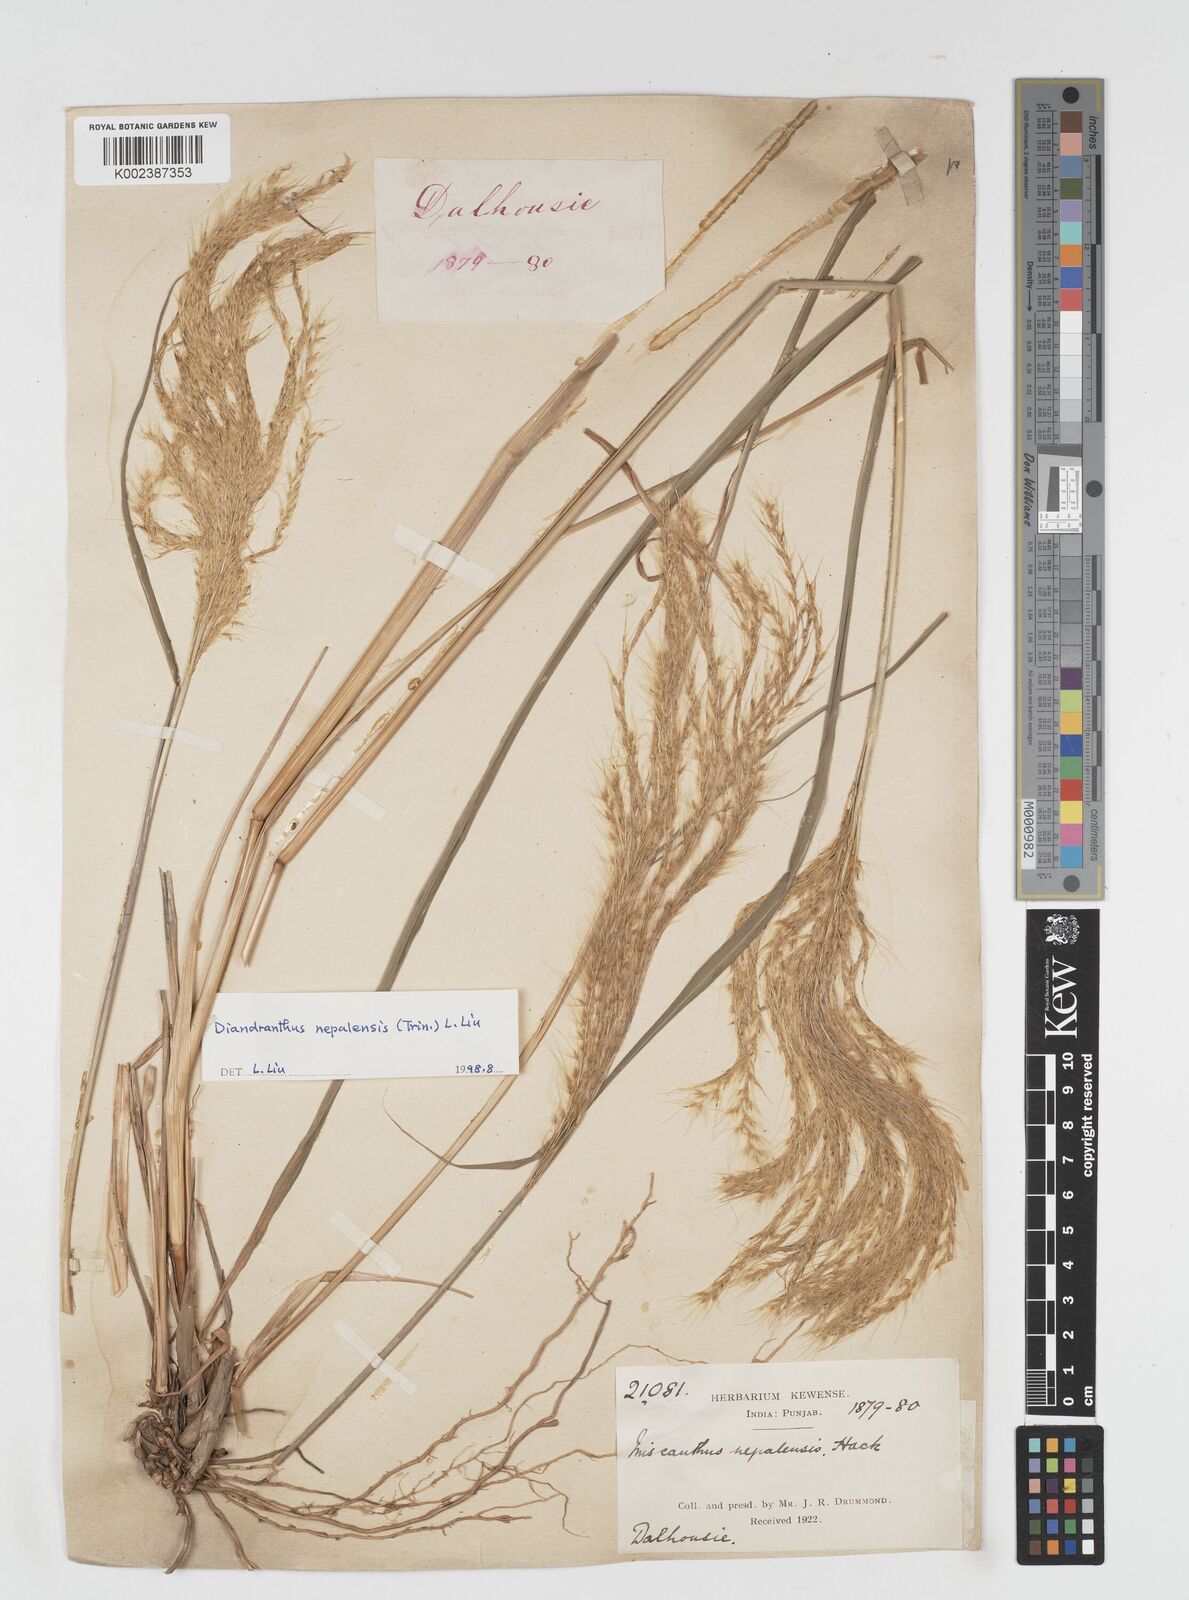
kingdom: Plantae
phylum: Tracheophyta
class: Liliopsida
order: Poales
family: Poaceae
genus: Miscanthus
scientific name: Miscanthus nepalensis
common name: Nepal silver grass
